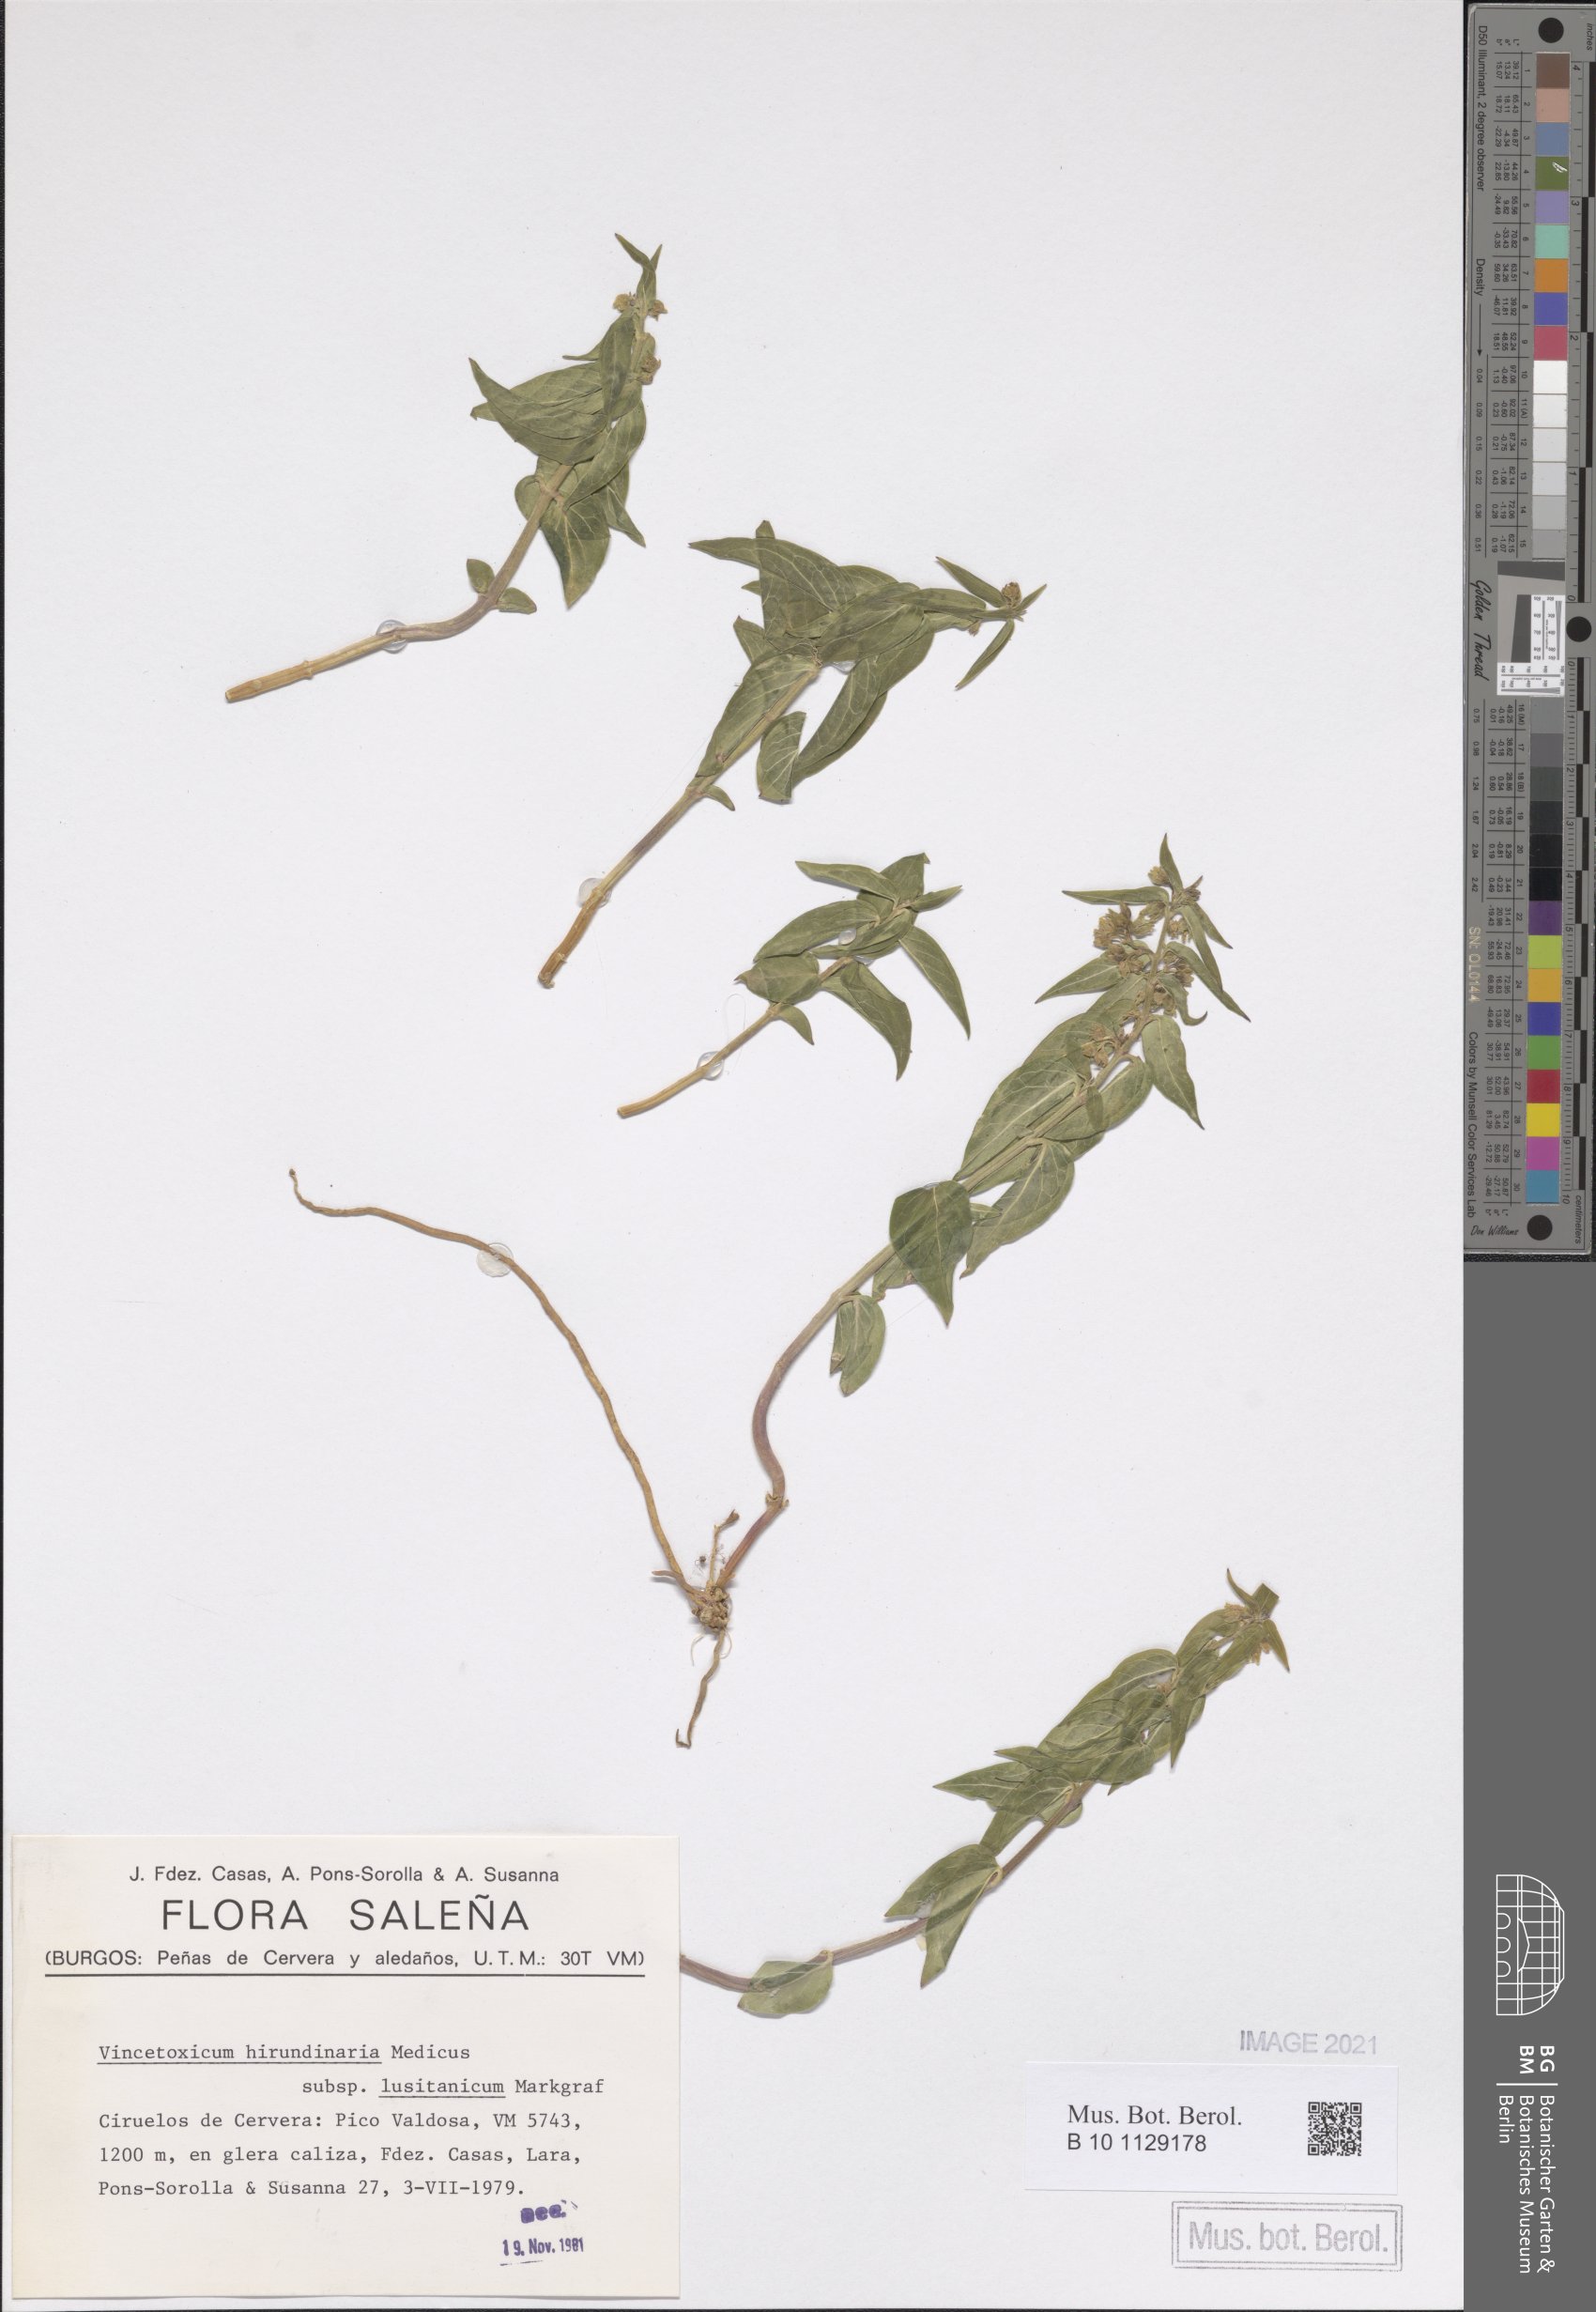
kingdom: Plantae
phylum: Tracheophyta
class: Magnoliopsida
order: Gentianales
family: Apocynaceae
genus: Vincetoxicum
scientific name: Vincetoxicum hirundinaria
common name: White swallowwort
